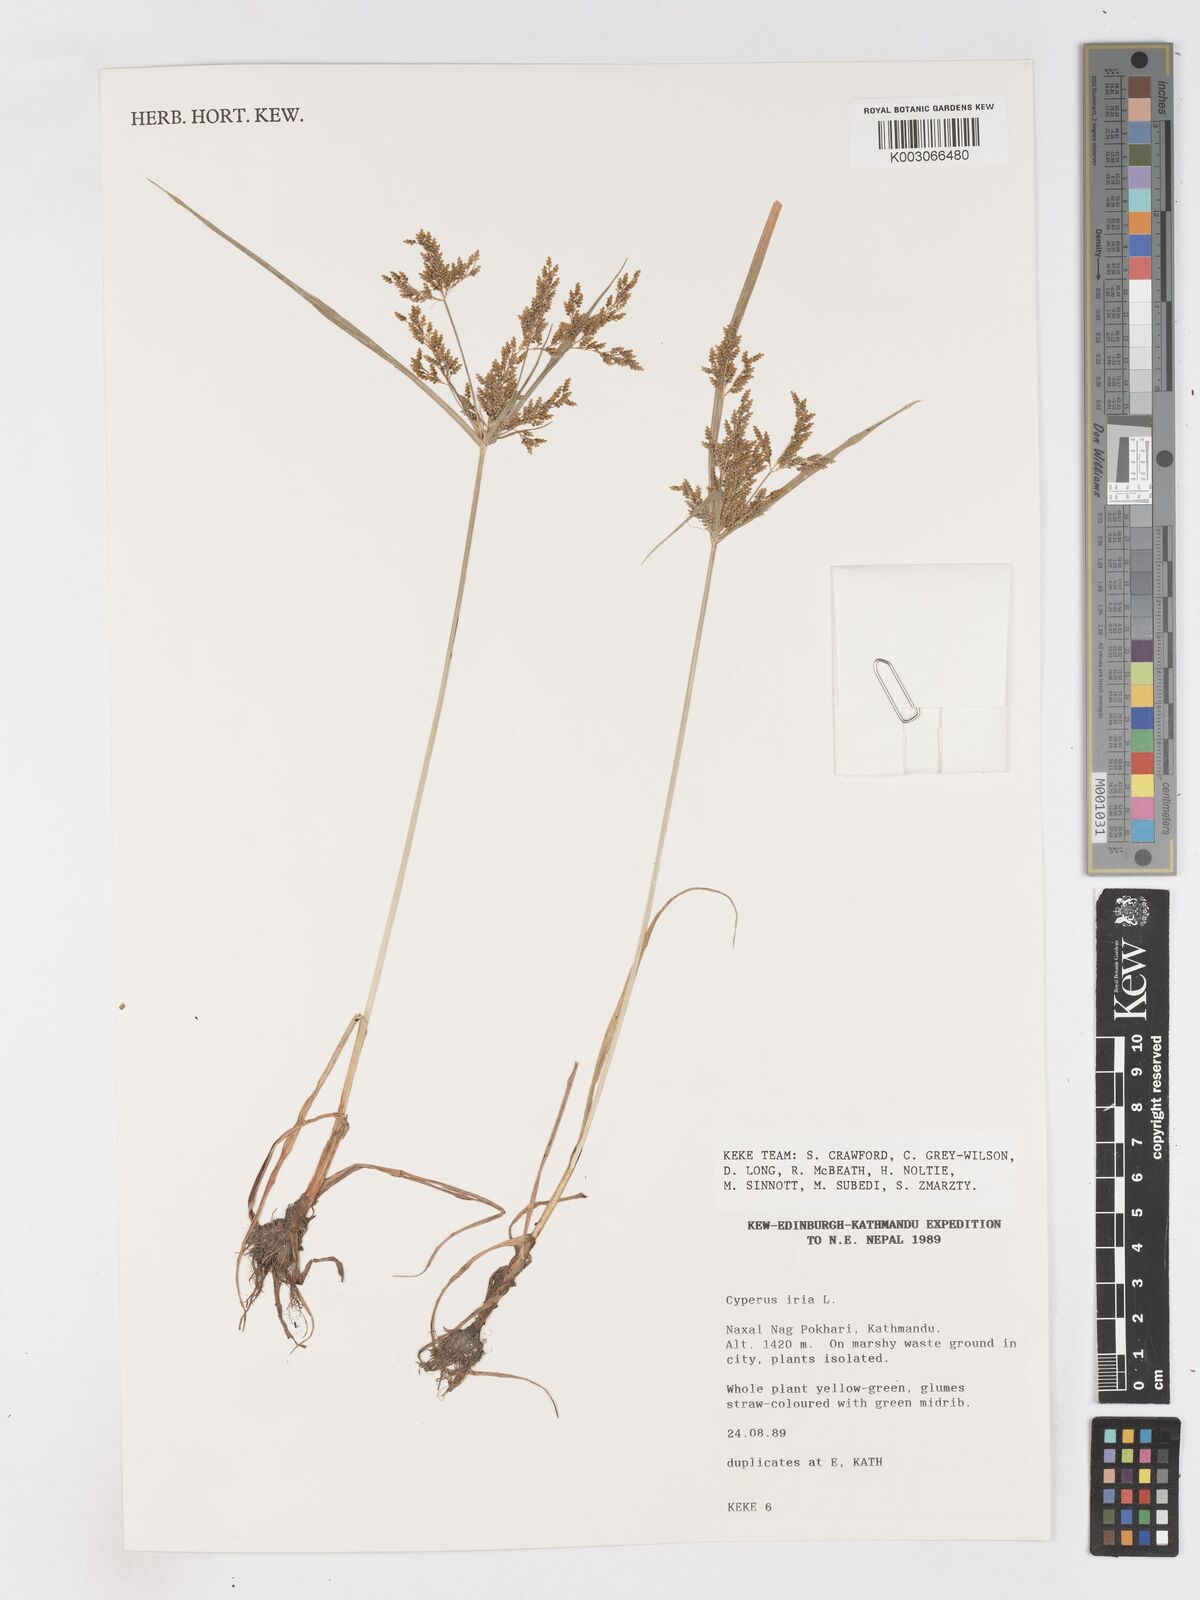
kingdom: Plantae
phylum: Tracheophyta
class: Liliopsida
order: Poales
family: Cyperaceae
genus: Cyperus
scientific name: Cyperus iria
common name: Ricefield flatsedge
